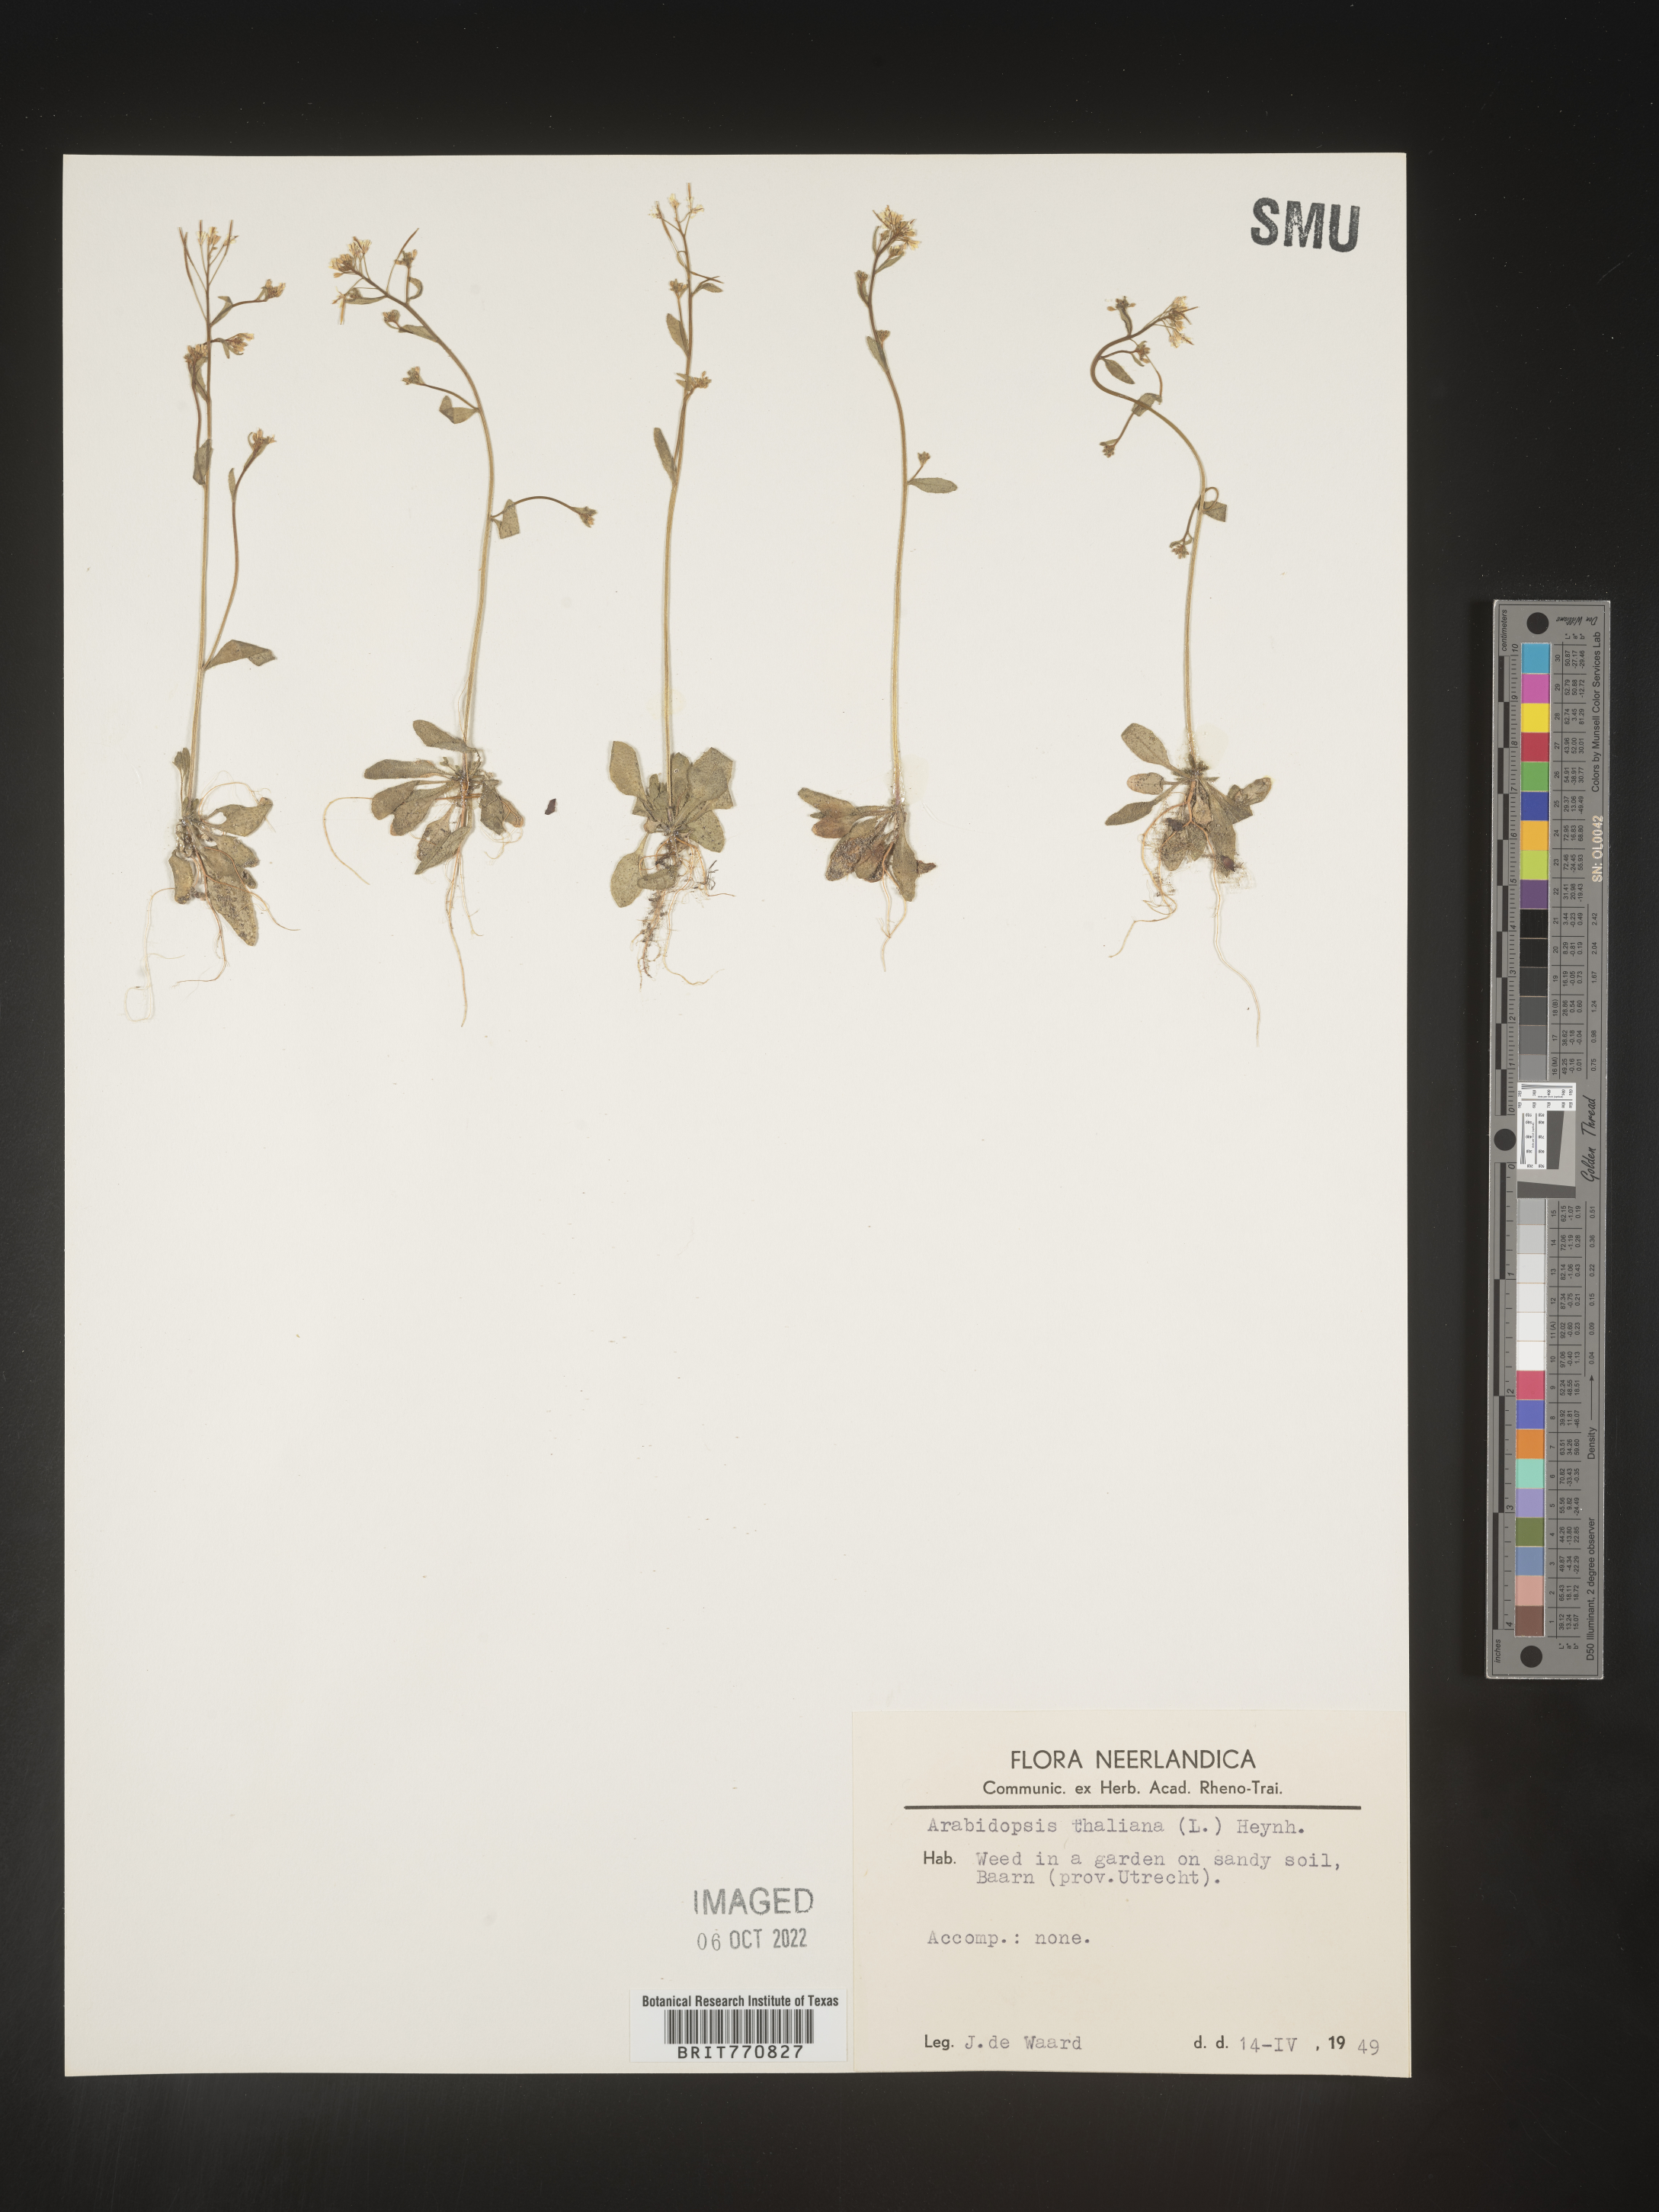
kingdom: Plantae
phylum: Tracheophyta
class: Magnoliopsida
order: Brassicales
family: Brassicaceae
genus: Arabidopsis
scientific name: Arabidopsis
